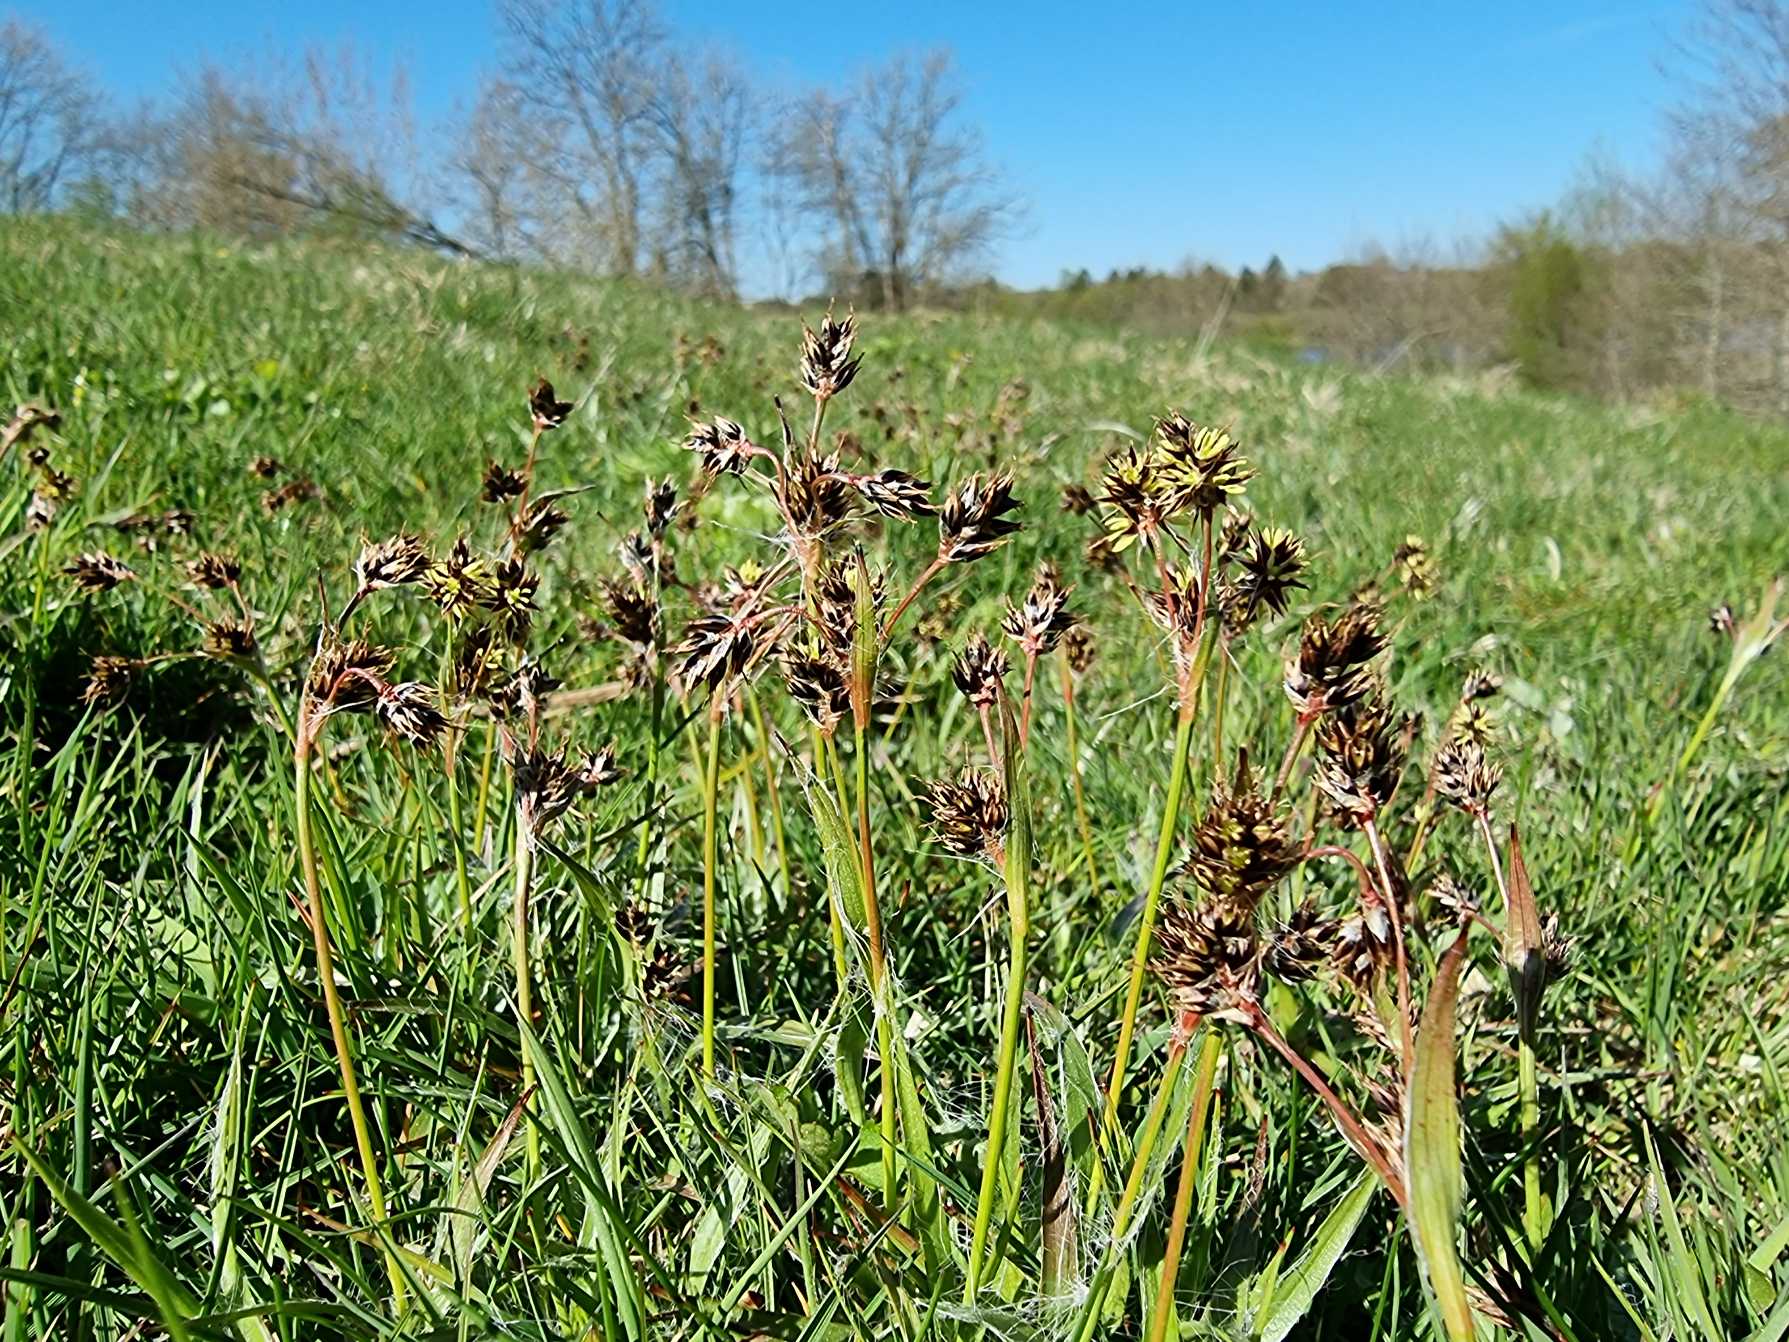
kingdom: Plantae
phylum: Tracheophyta
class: Liliopsida
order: Poales
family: Juncaceae
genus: Luzula
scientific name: Luzula campestris
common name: Mark-frytle
